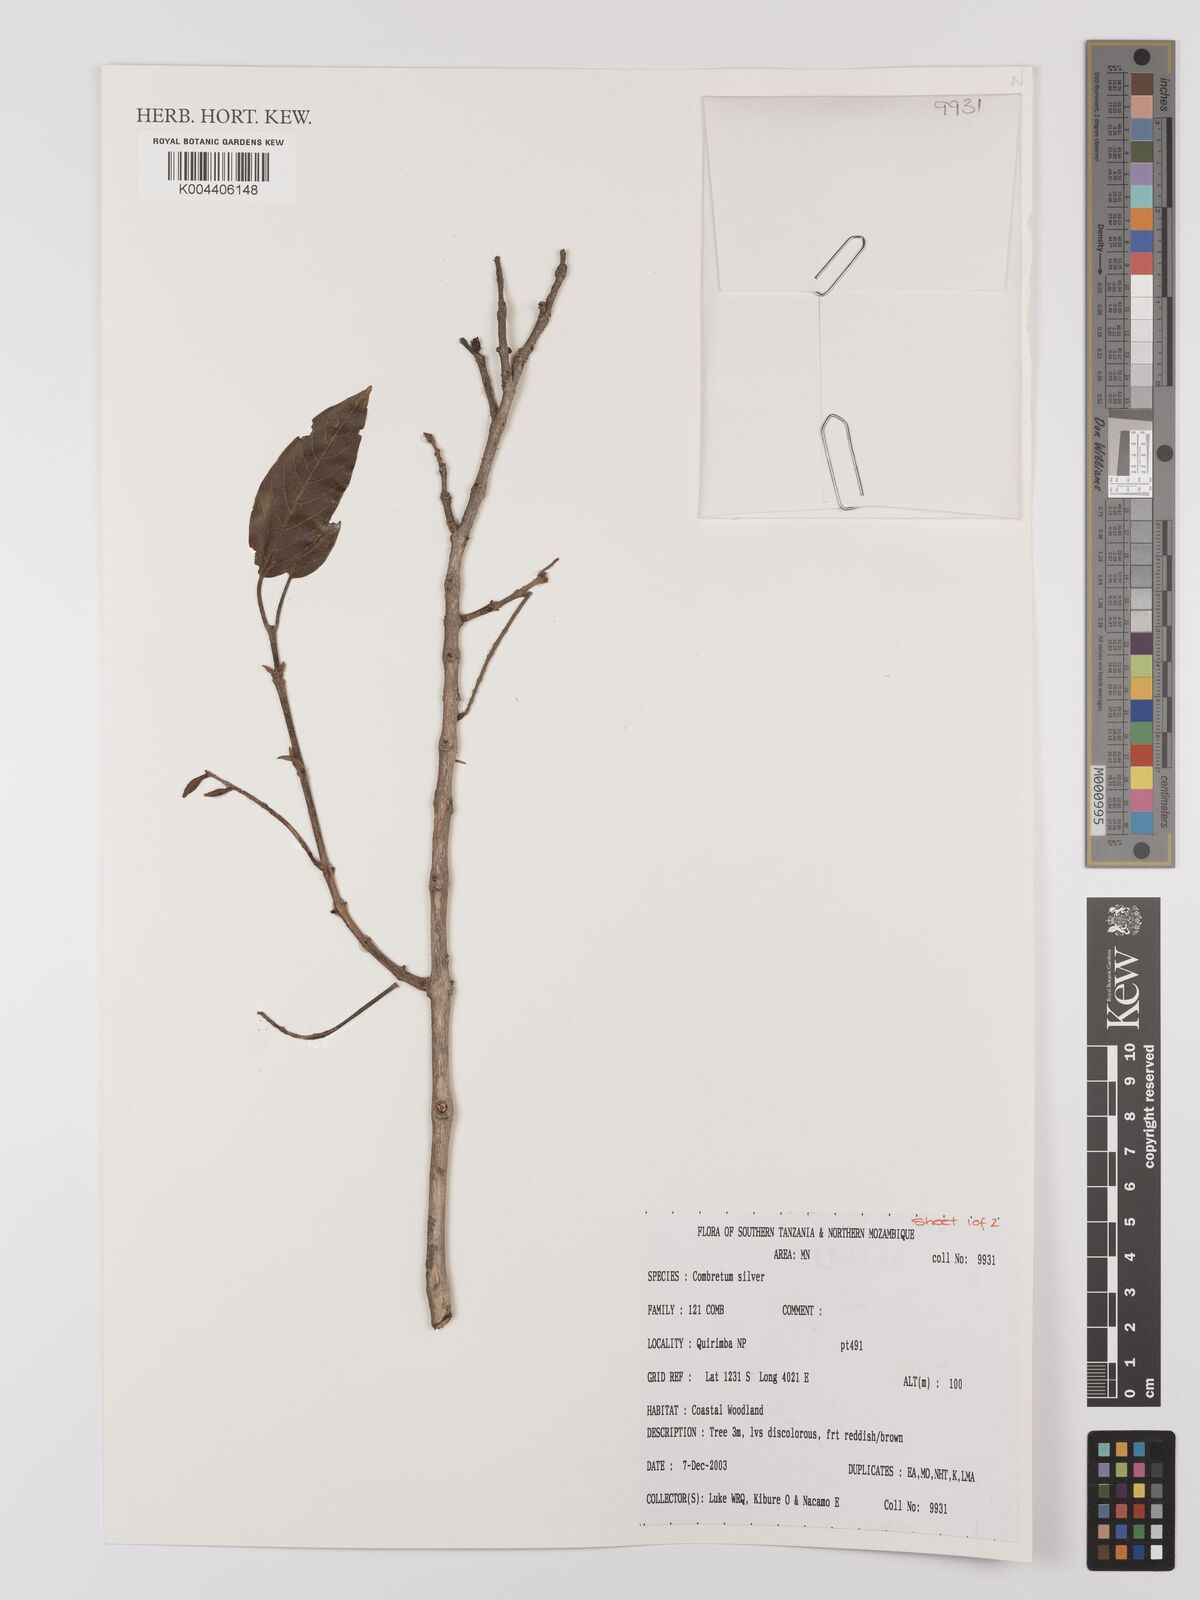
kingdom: Plantae
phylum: Tracheophyta
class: Magnoliopsida
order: Myrtales
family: Combretaceae
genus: Combretum
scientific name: Combretum
